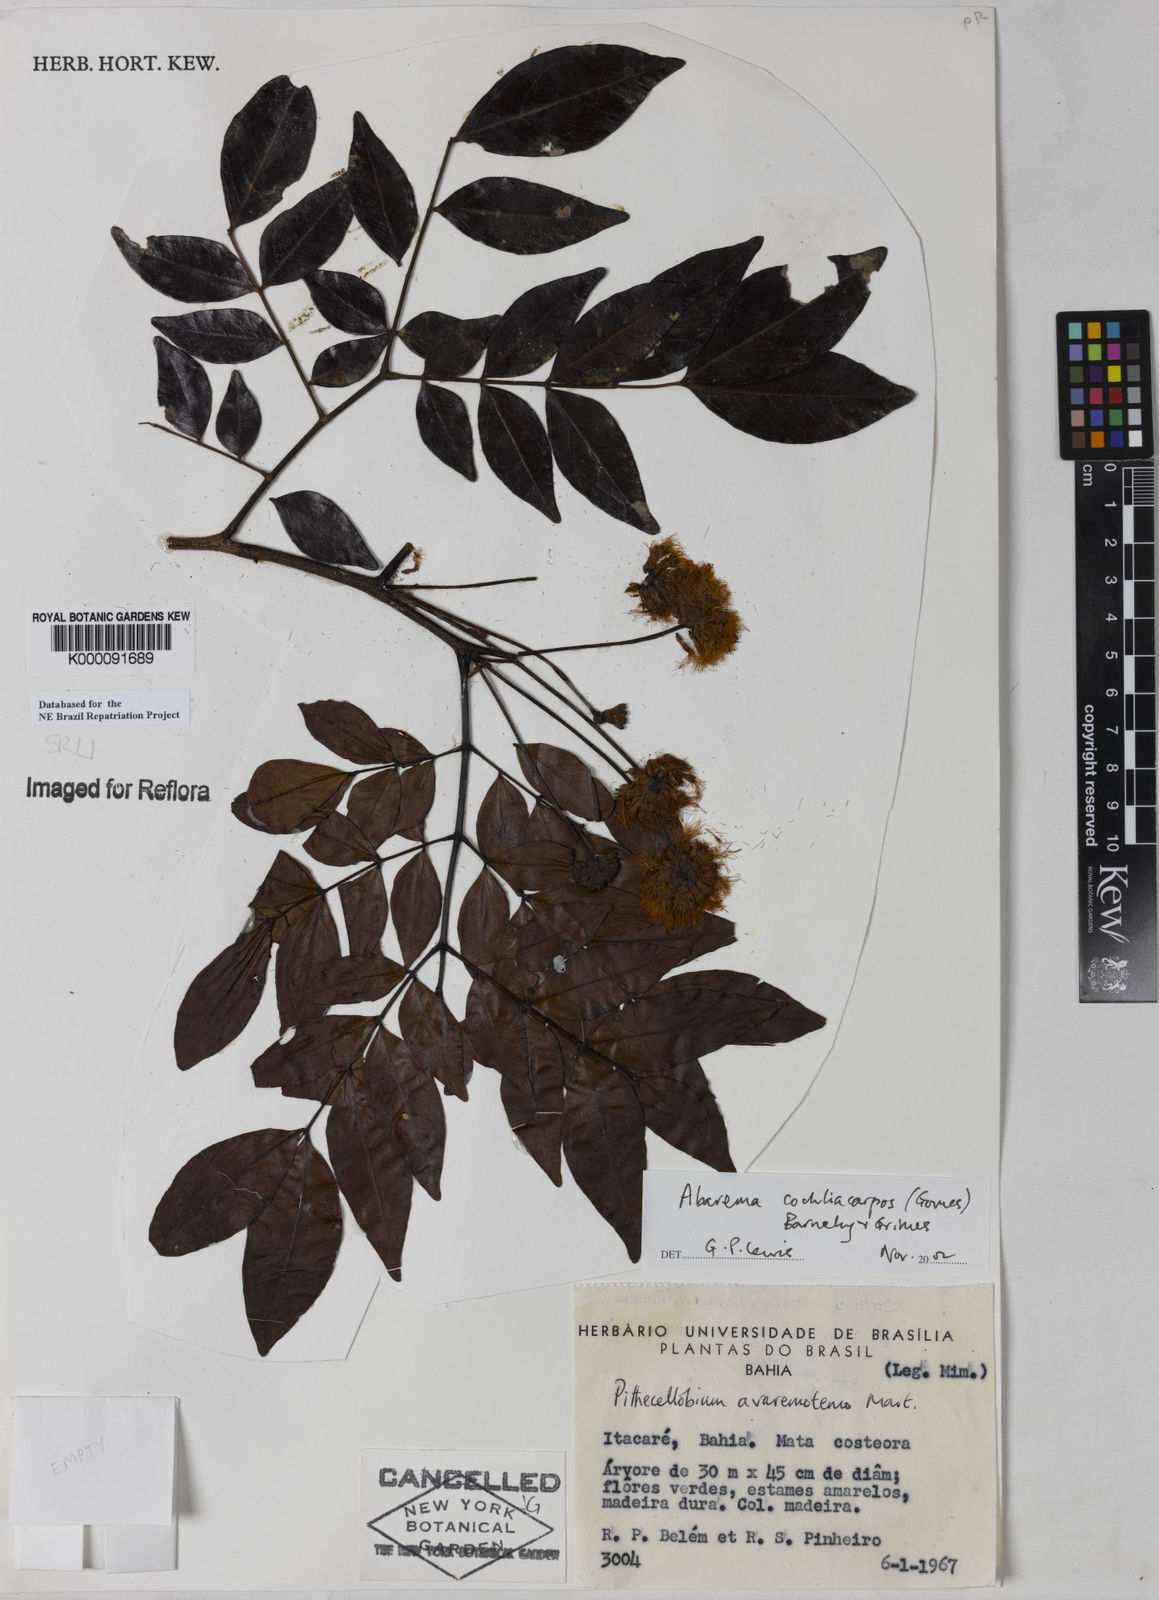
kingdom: Plantae
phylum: Tracheophyta
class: Magnoliopsida
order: Fabales
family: Fabaceae
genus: Abarema
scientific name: Abarema
